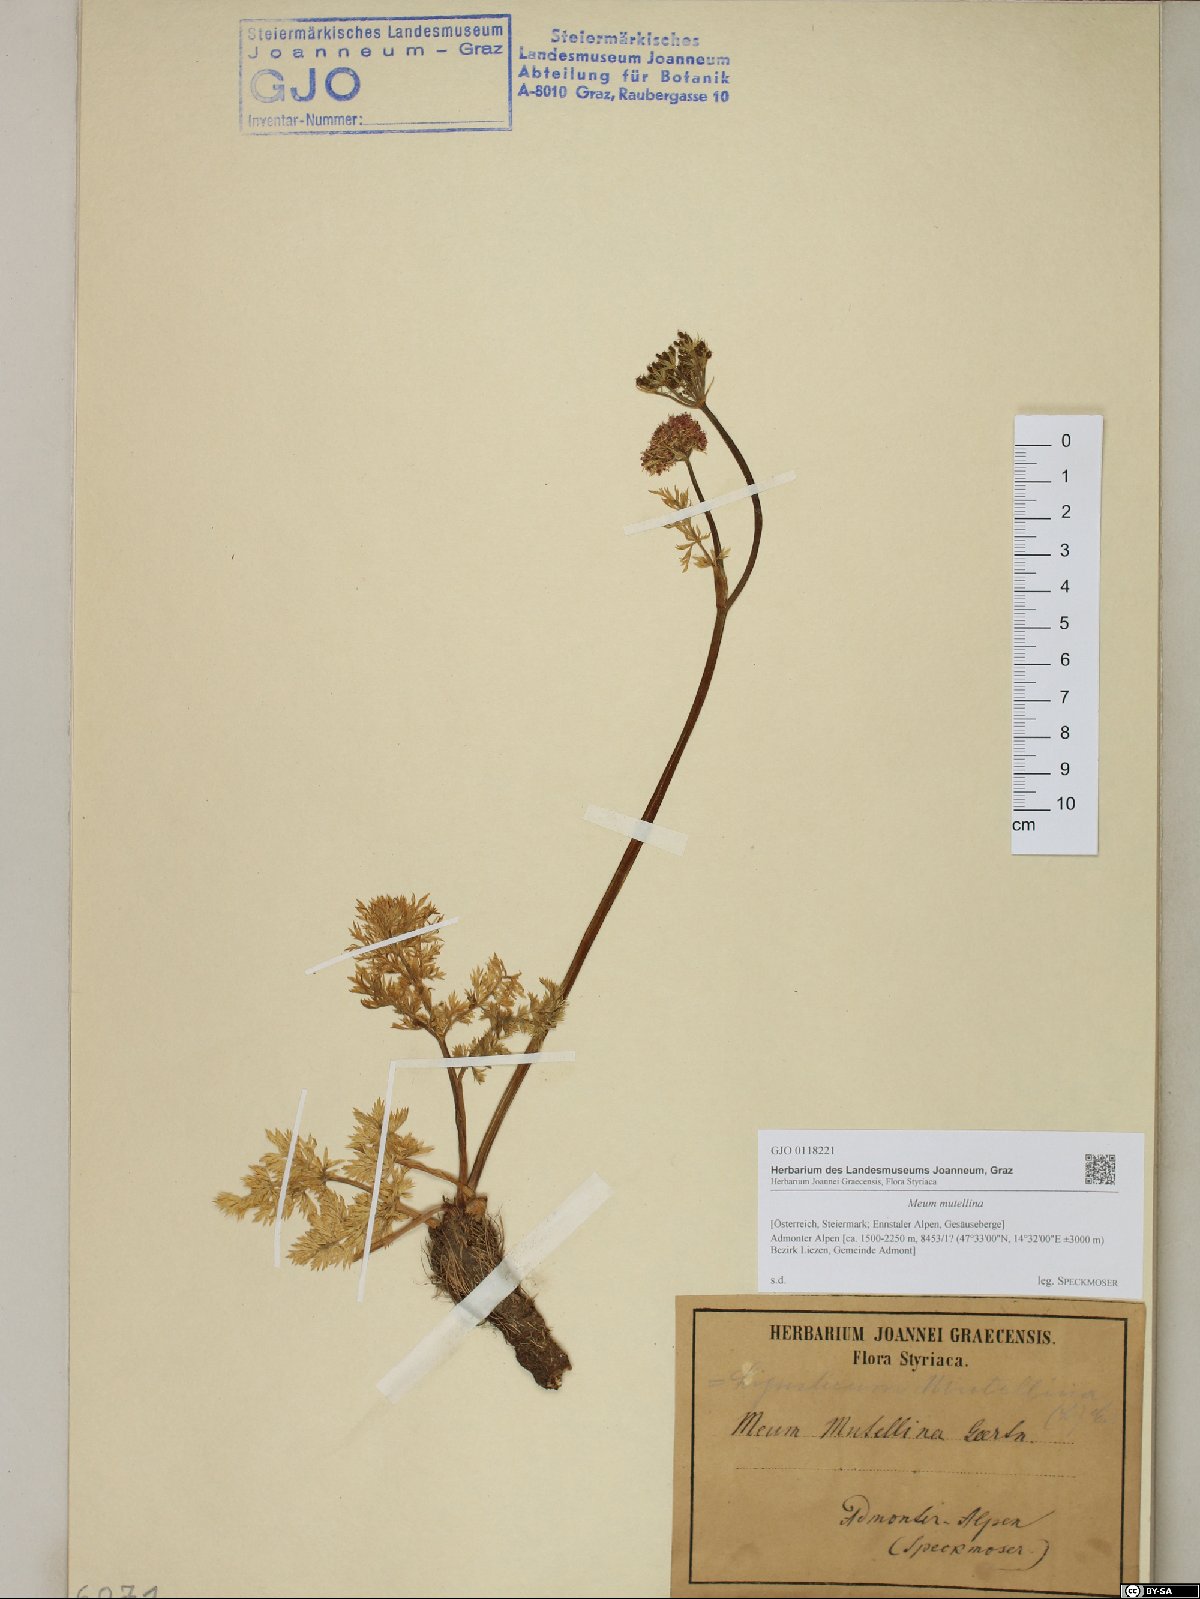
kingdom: Plantae
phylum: Tracheophyta
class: Magnoliopsida
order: Apiales
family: Apiaceae
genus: Mutellina
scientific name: Mutellina adonidifolia
